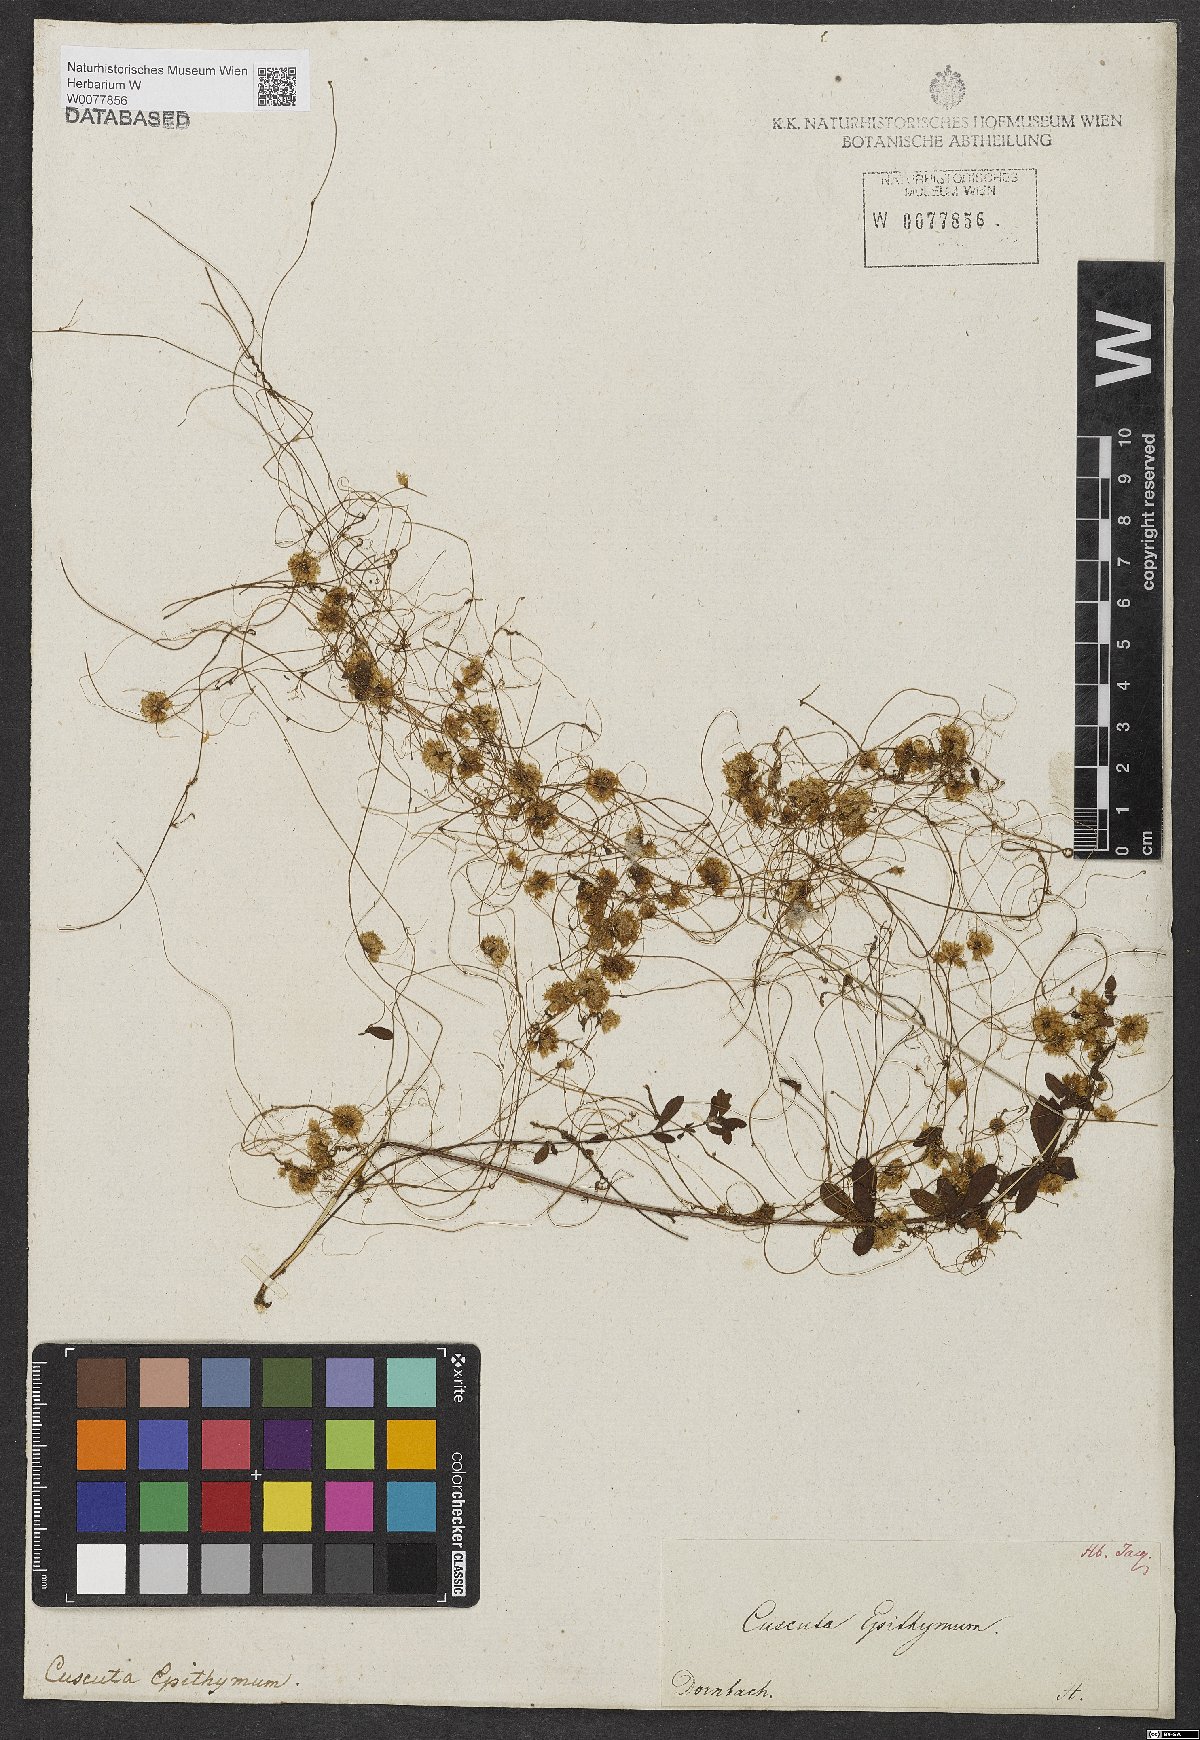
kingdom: Plantae
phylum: Tracheophyta
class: Magnoliopsida
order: Solanales
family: Convolvulaceae
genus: Cuscuta
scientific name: Cuscuta epithymum
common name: Clover dodder
